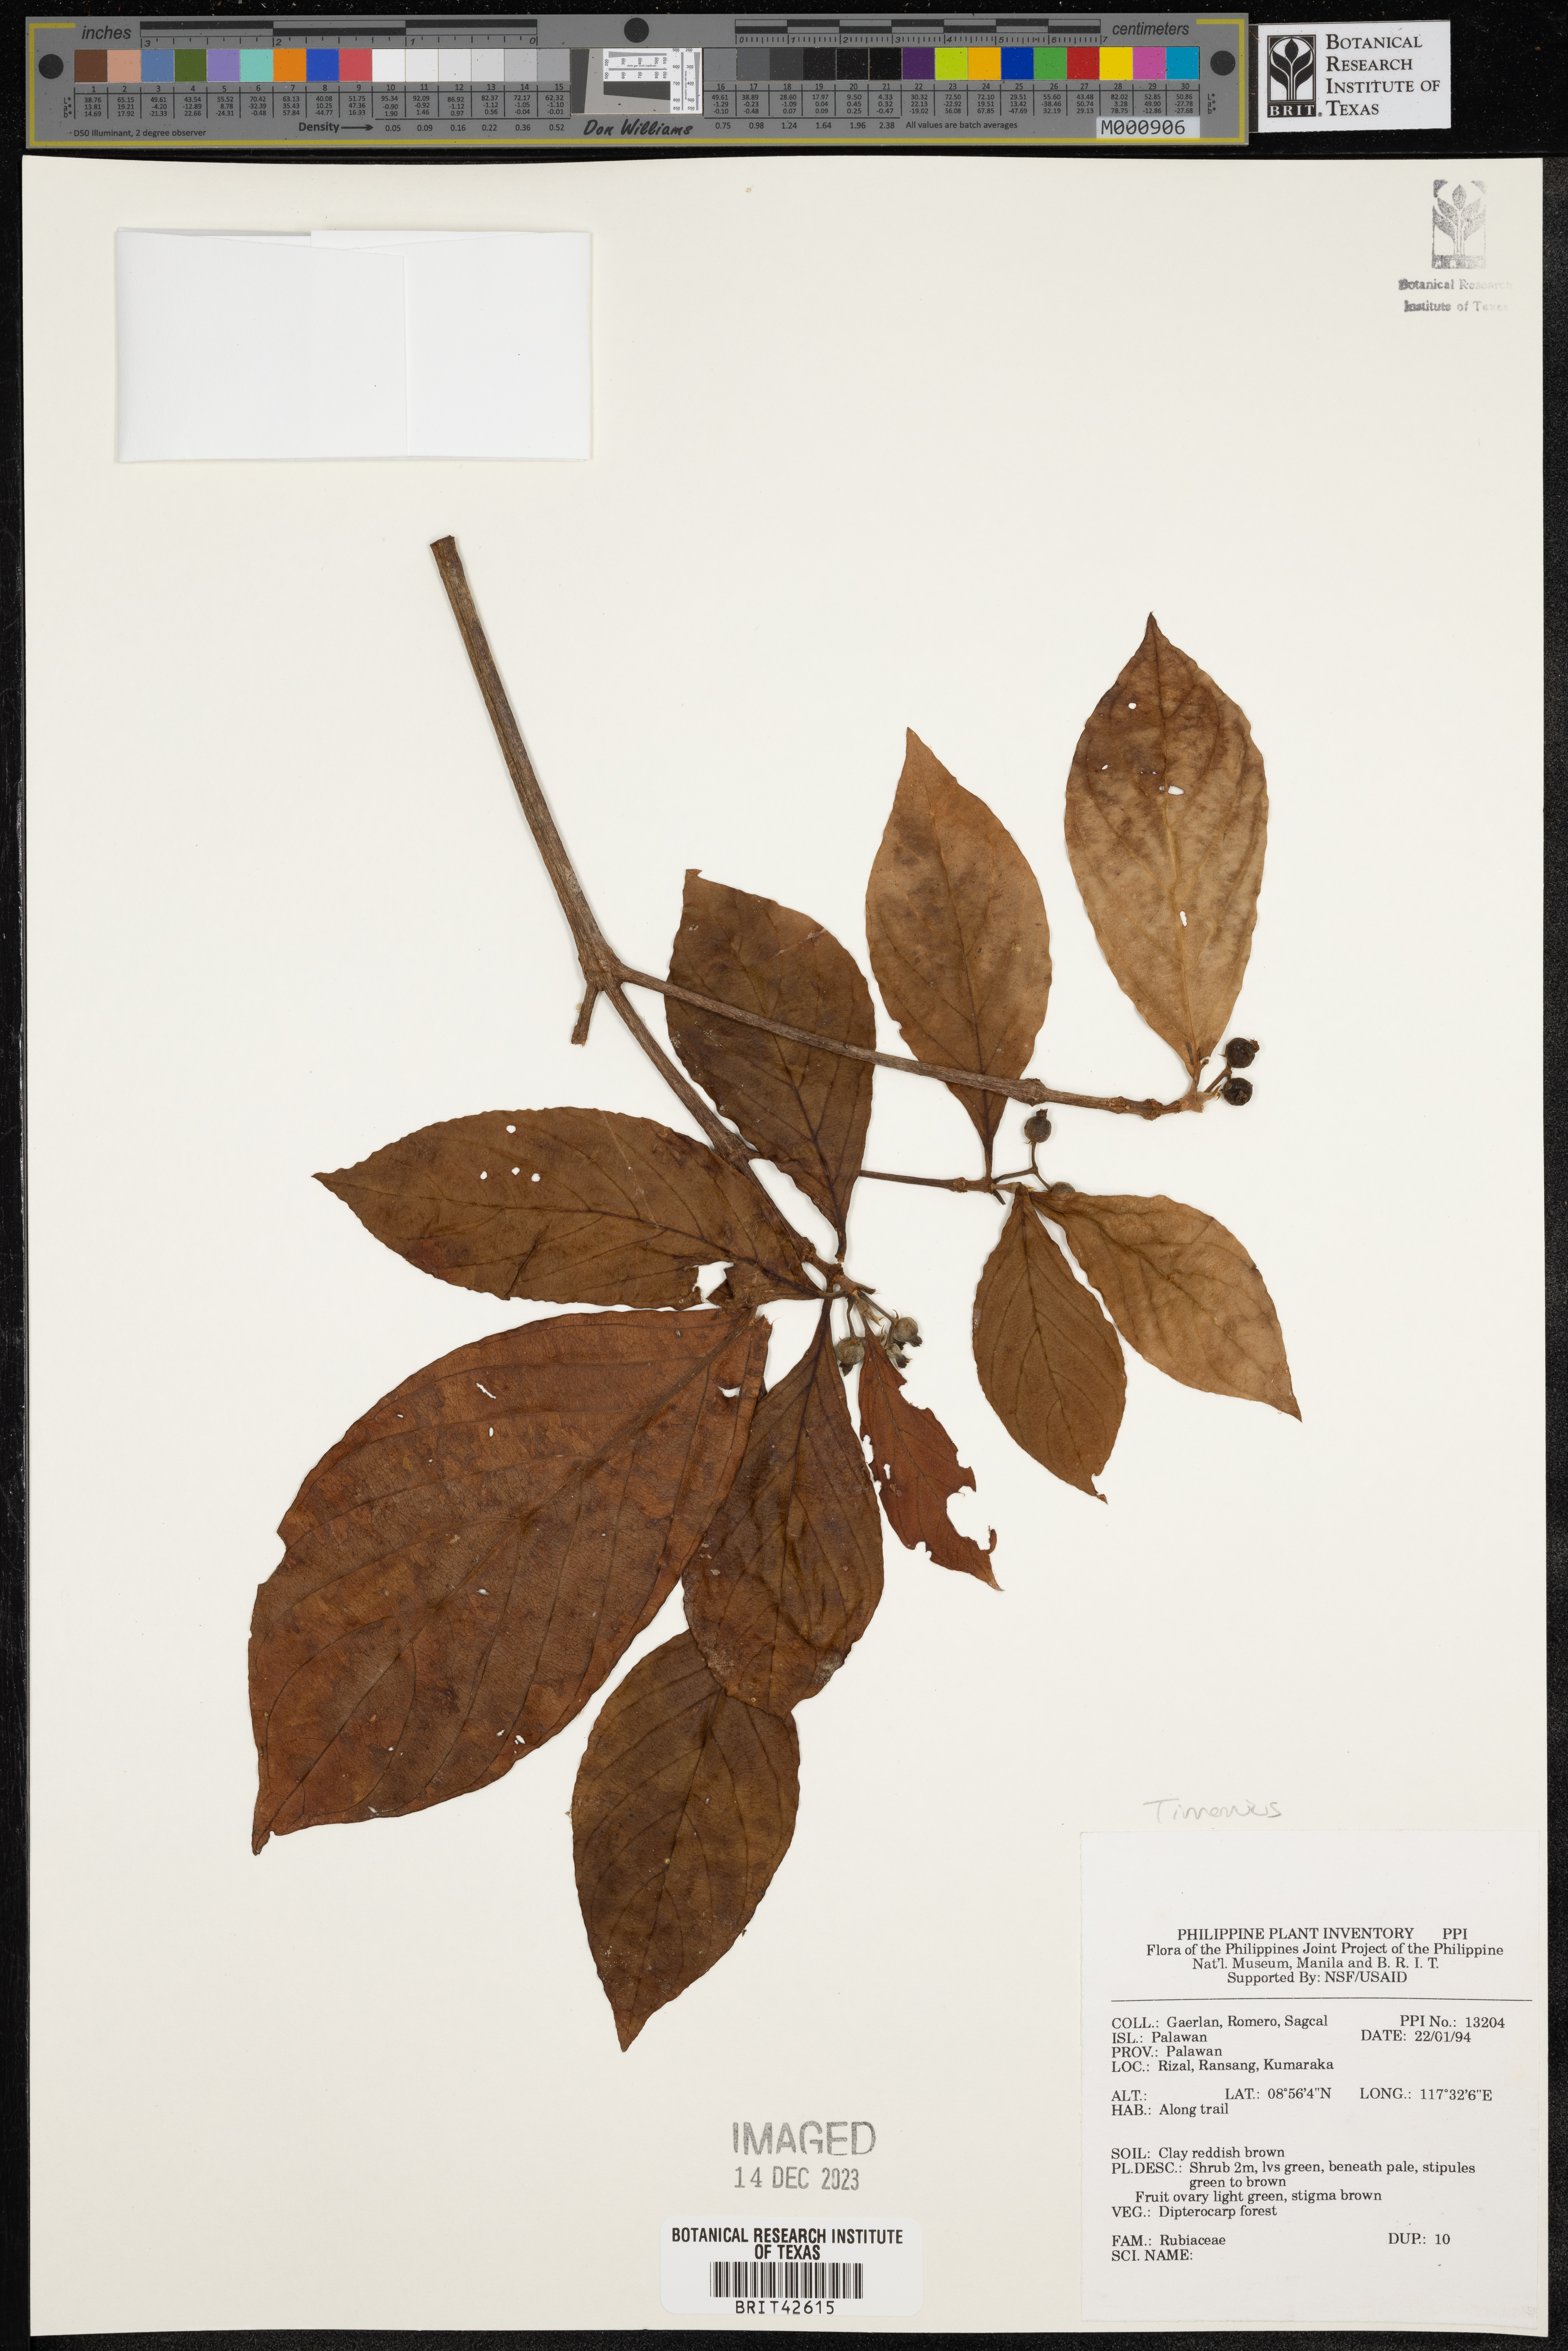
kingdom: Plantae
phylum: Tracheophyta
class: Magnoliopsida
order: Gentianales
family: Rubiaceae
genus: Timonius
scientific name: Timonius
